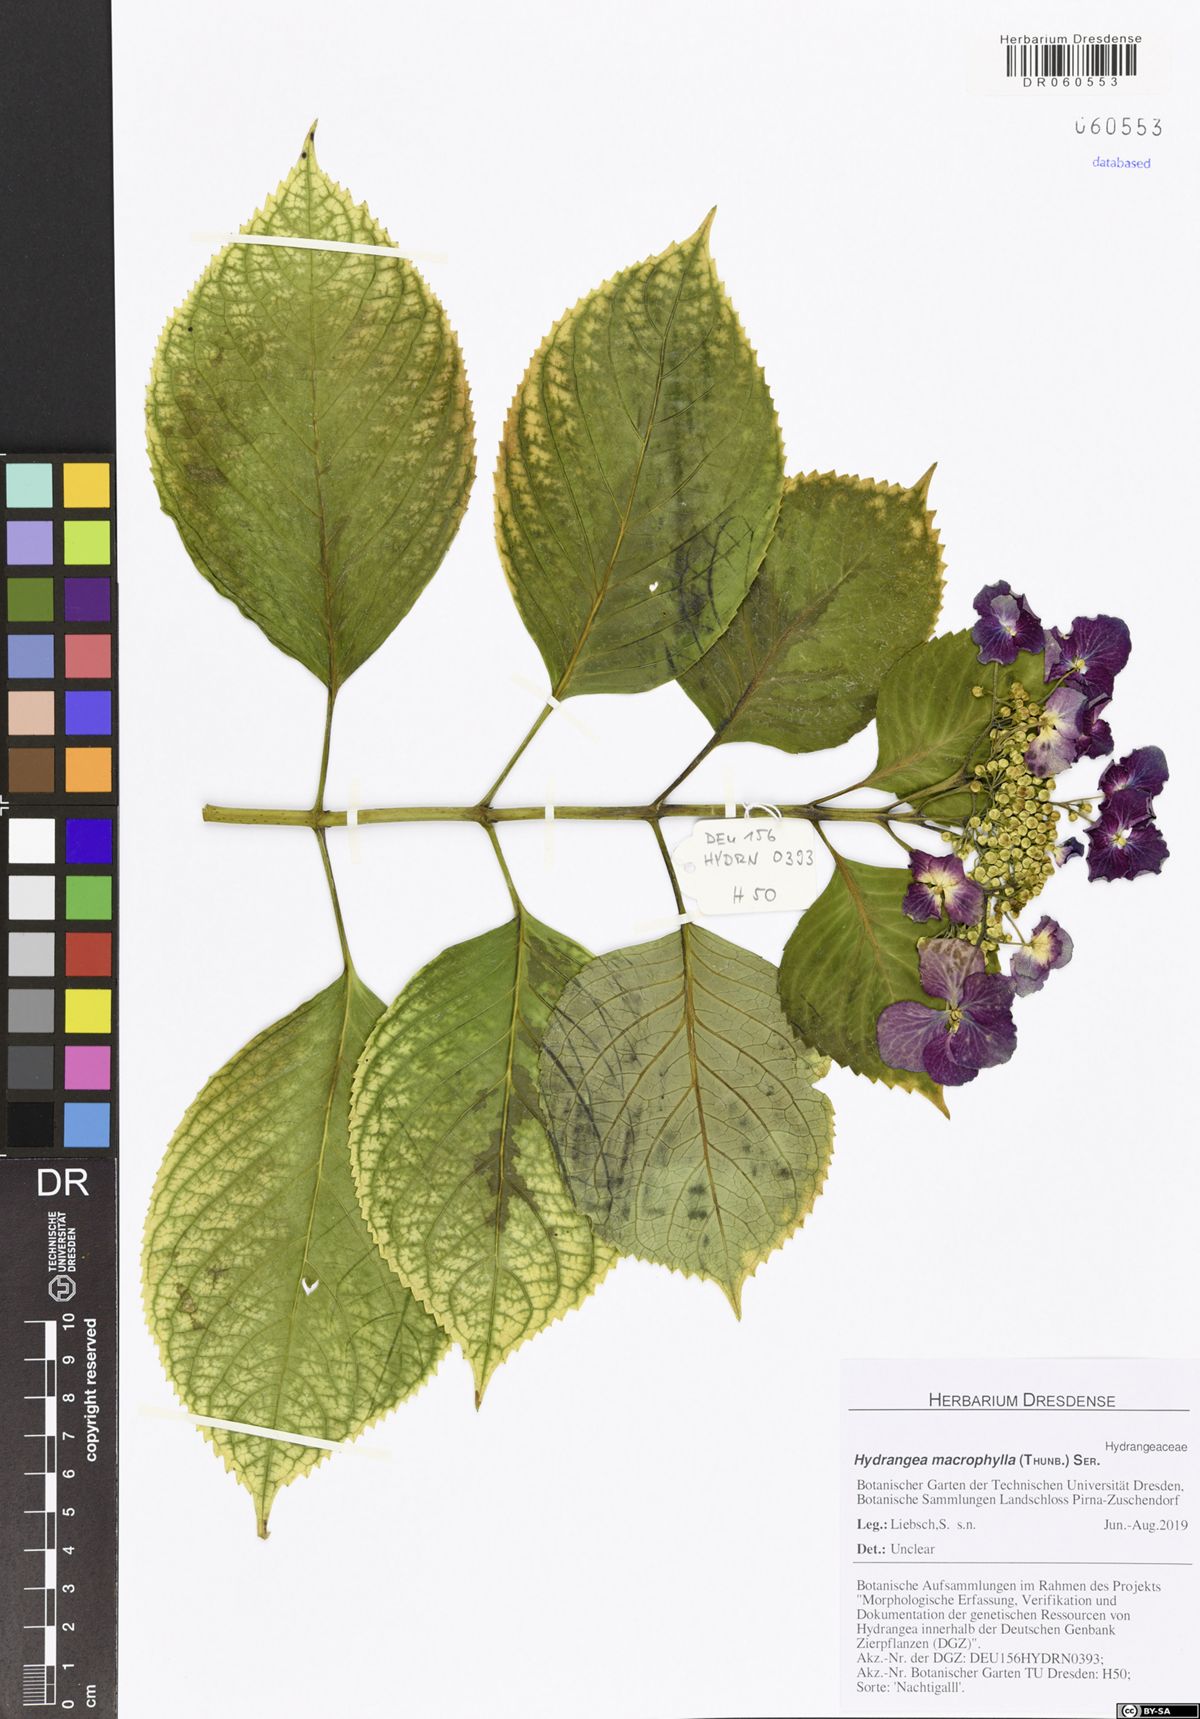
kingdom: Plantae
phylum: Tracheophyta
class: Magnoliopsida
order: Cornales
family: Hydrangeaceae
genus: Hydrangea
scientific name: Hydrangea macrophylla
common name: Hydrangea
